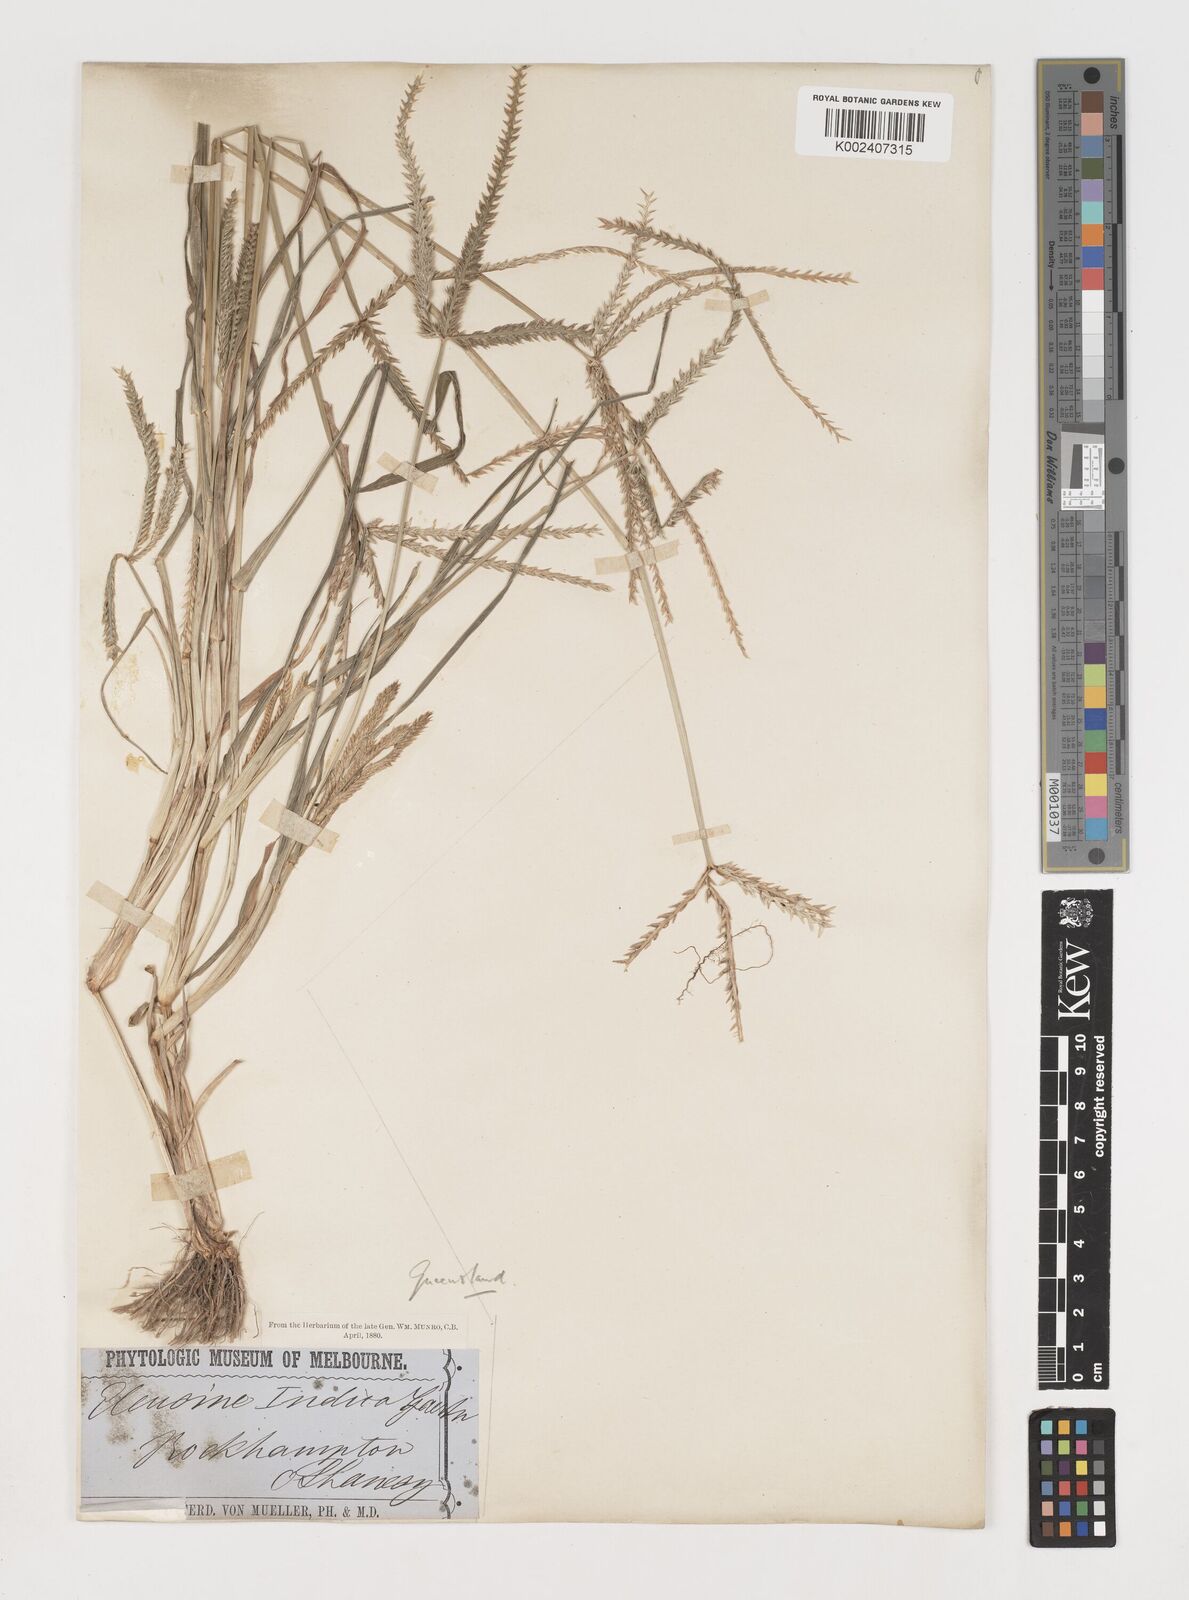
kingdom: Plantae
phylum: Tracheophyta
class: Liliopsida
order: Poales
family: Poaceae
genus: Eleusine
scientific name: Eleusine indica
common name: Yard-grass
